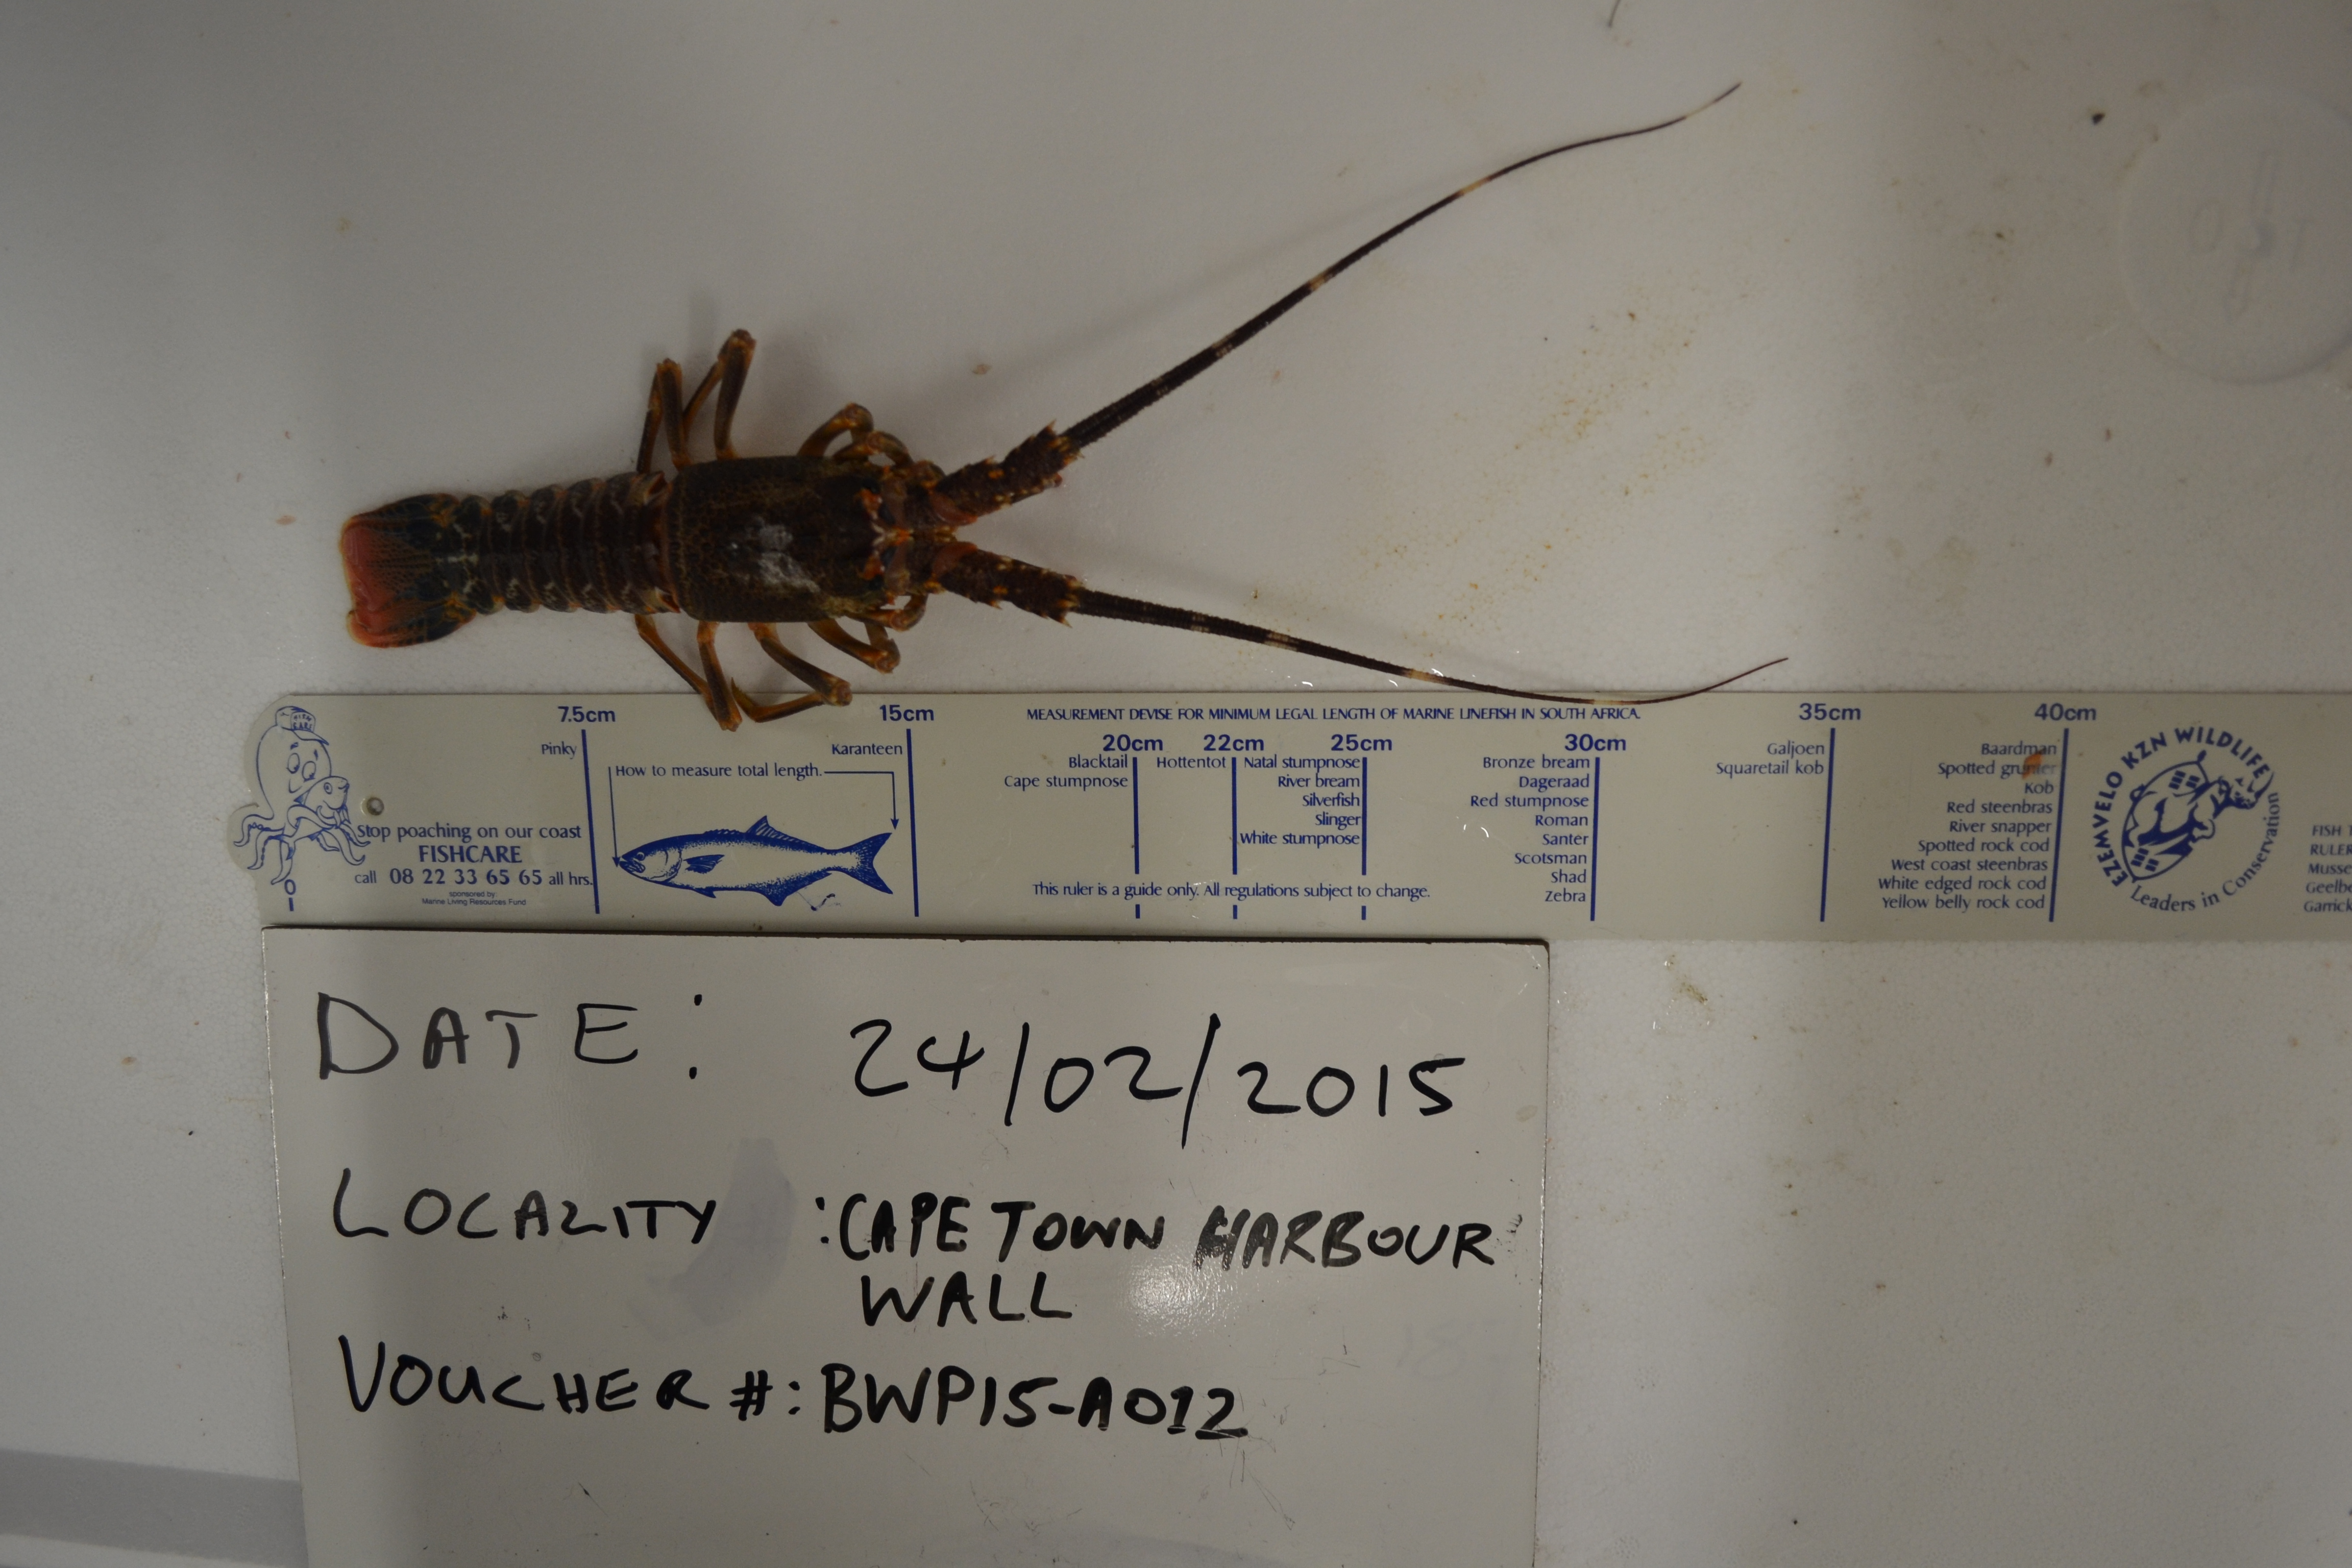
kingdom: Animalia
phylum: Arthropoda
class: Malacostraca
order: Decapoda
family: Palinuridae
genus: Jasus
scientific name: Jasus lalandii
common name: Cape rock lobster
